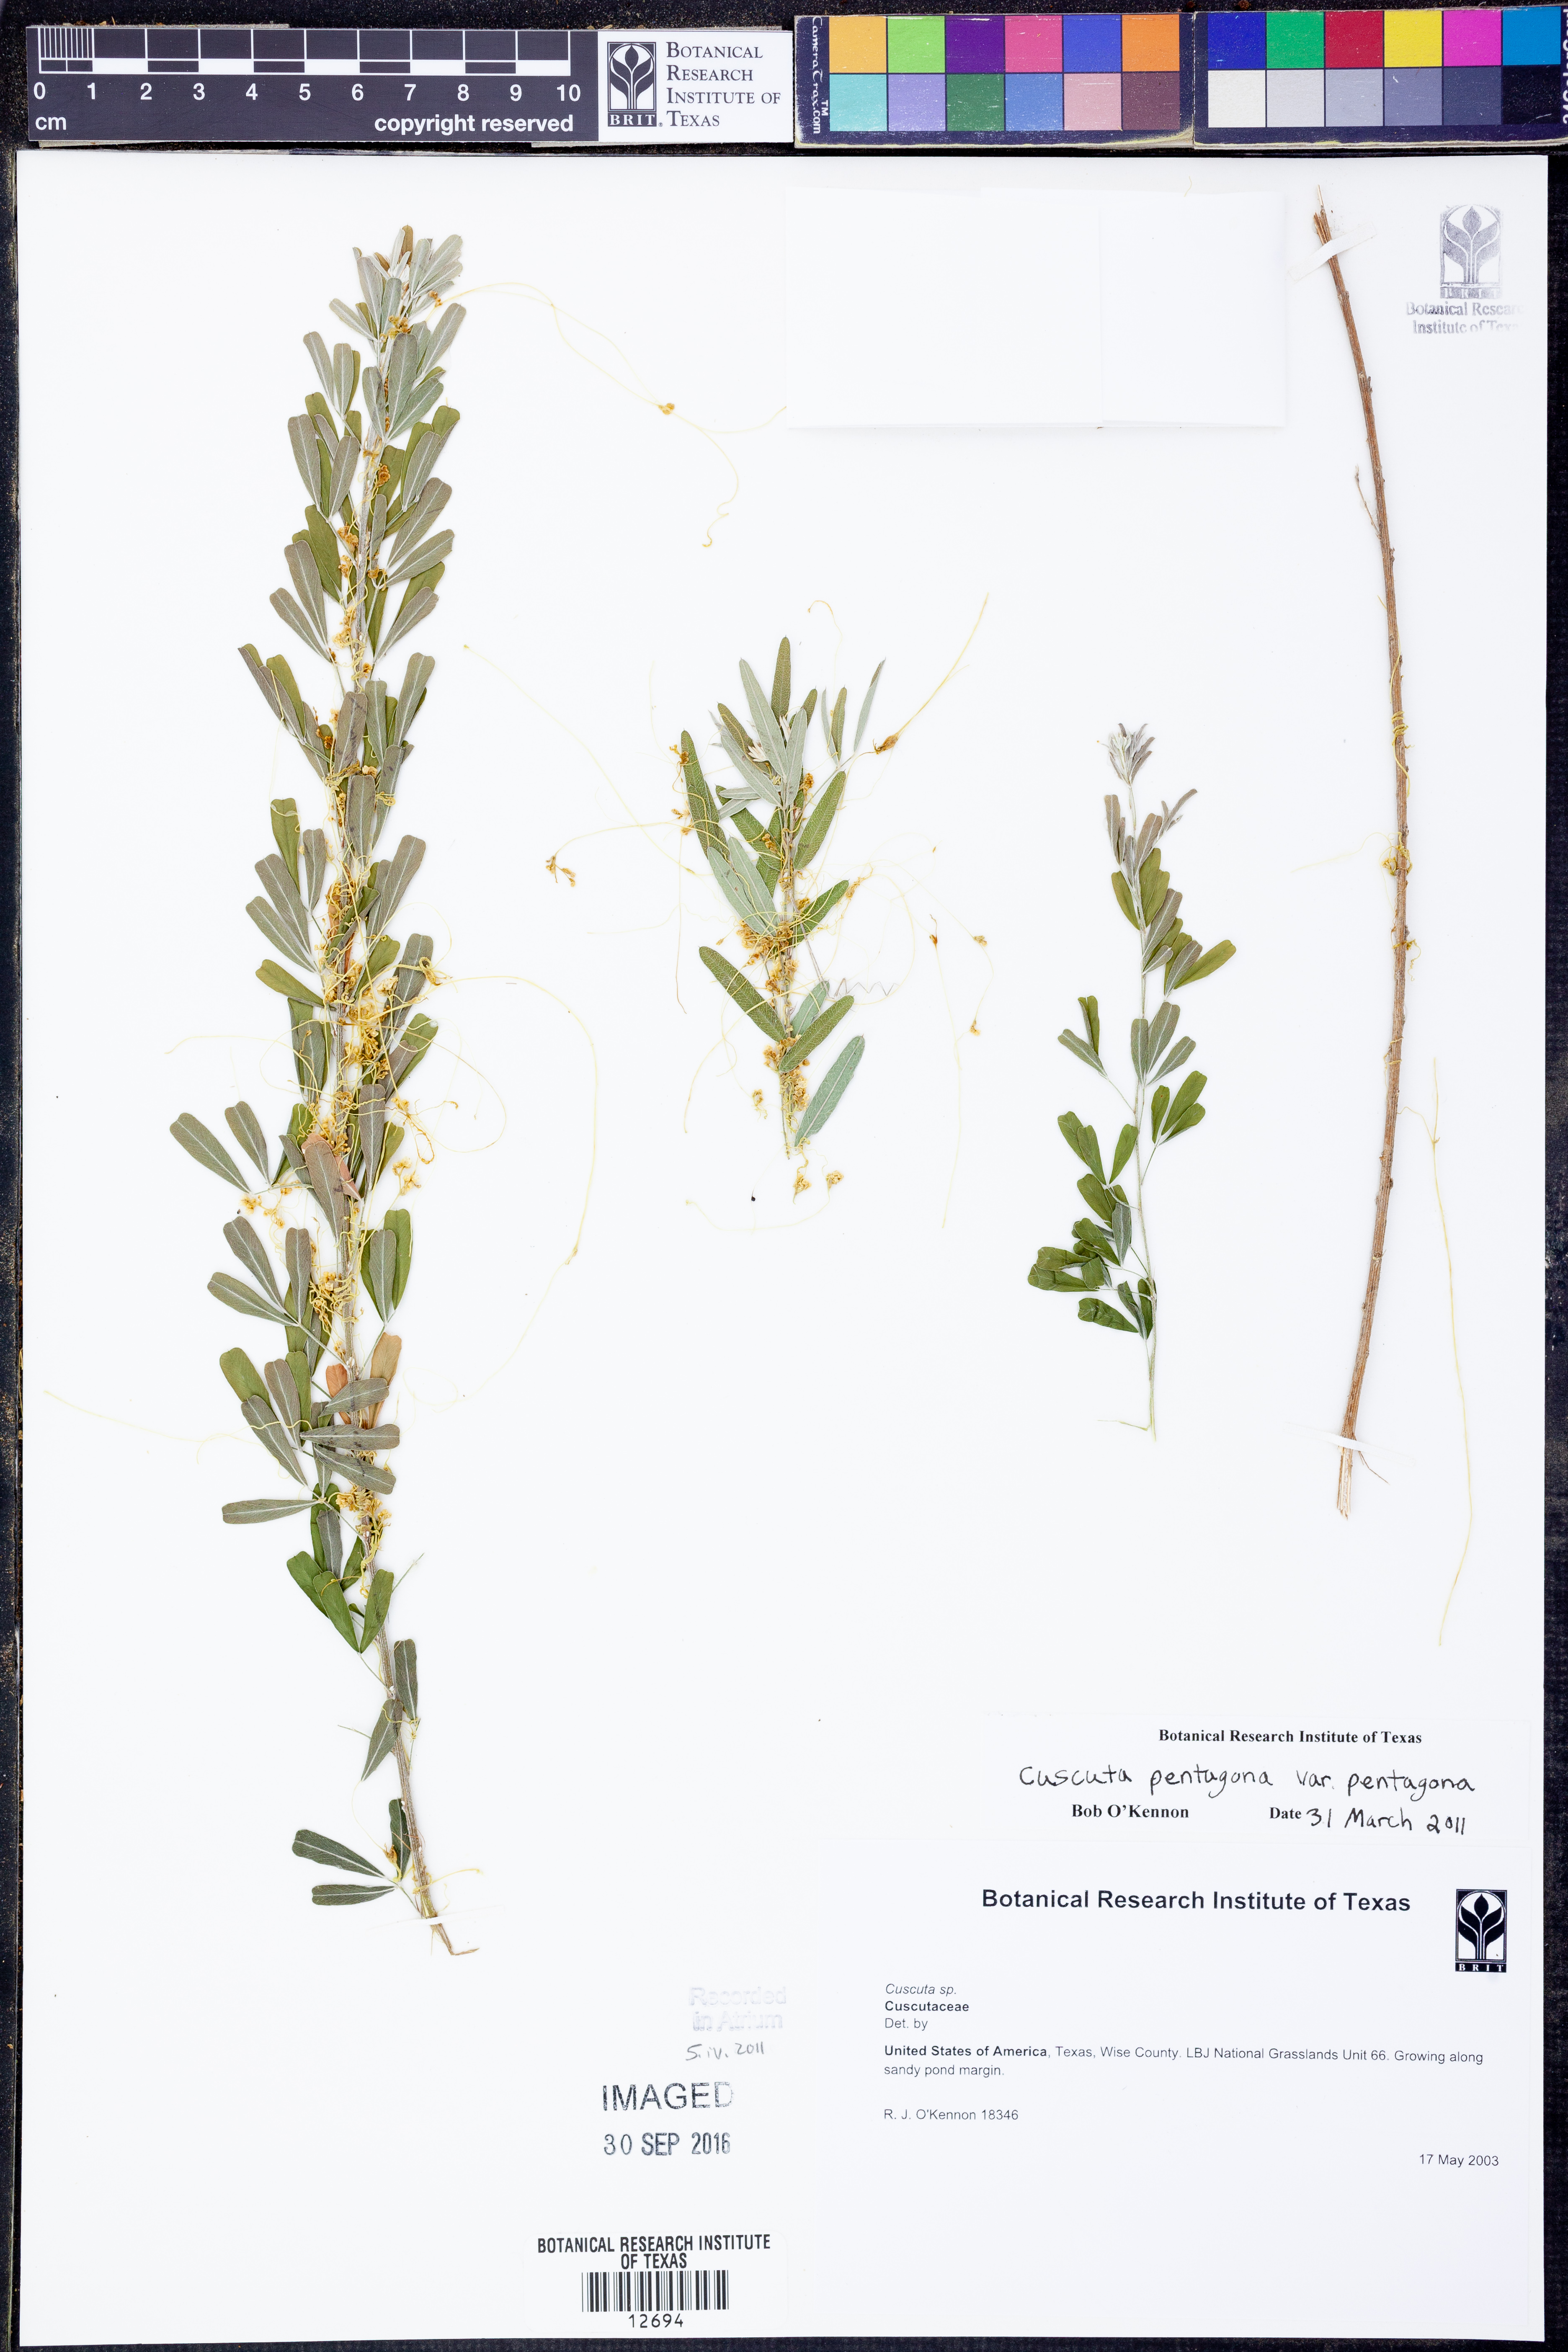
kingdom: Plantae
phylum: Tracheophyta
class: Magnoliopsida
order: Solanales
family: Convolvulaceae
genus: Cuscuta
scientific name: Cuscuta pentagona
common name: Fiveangled dodder
